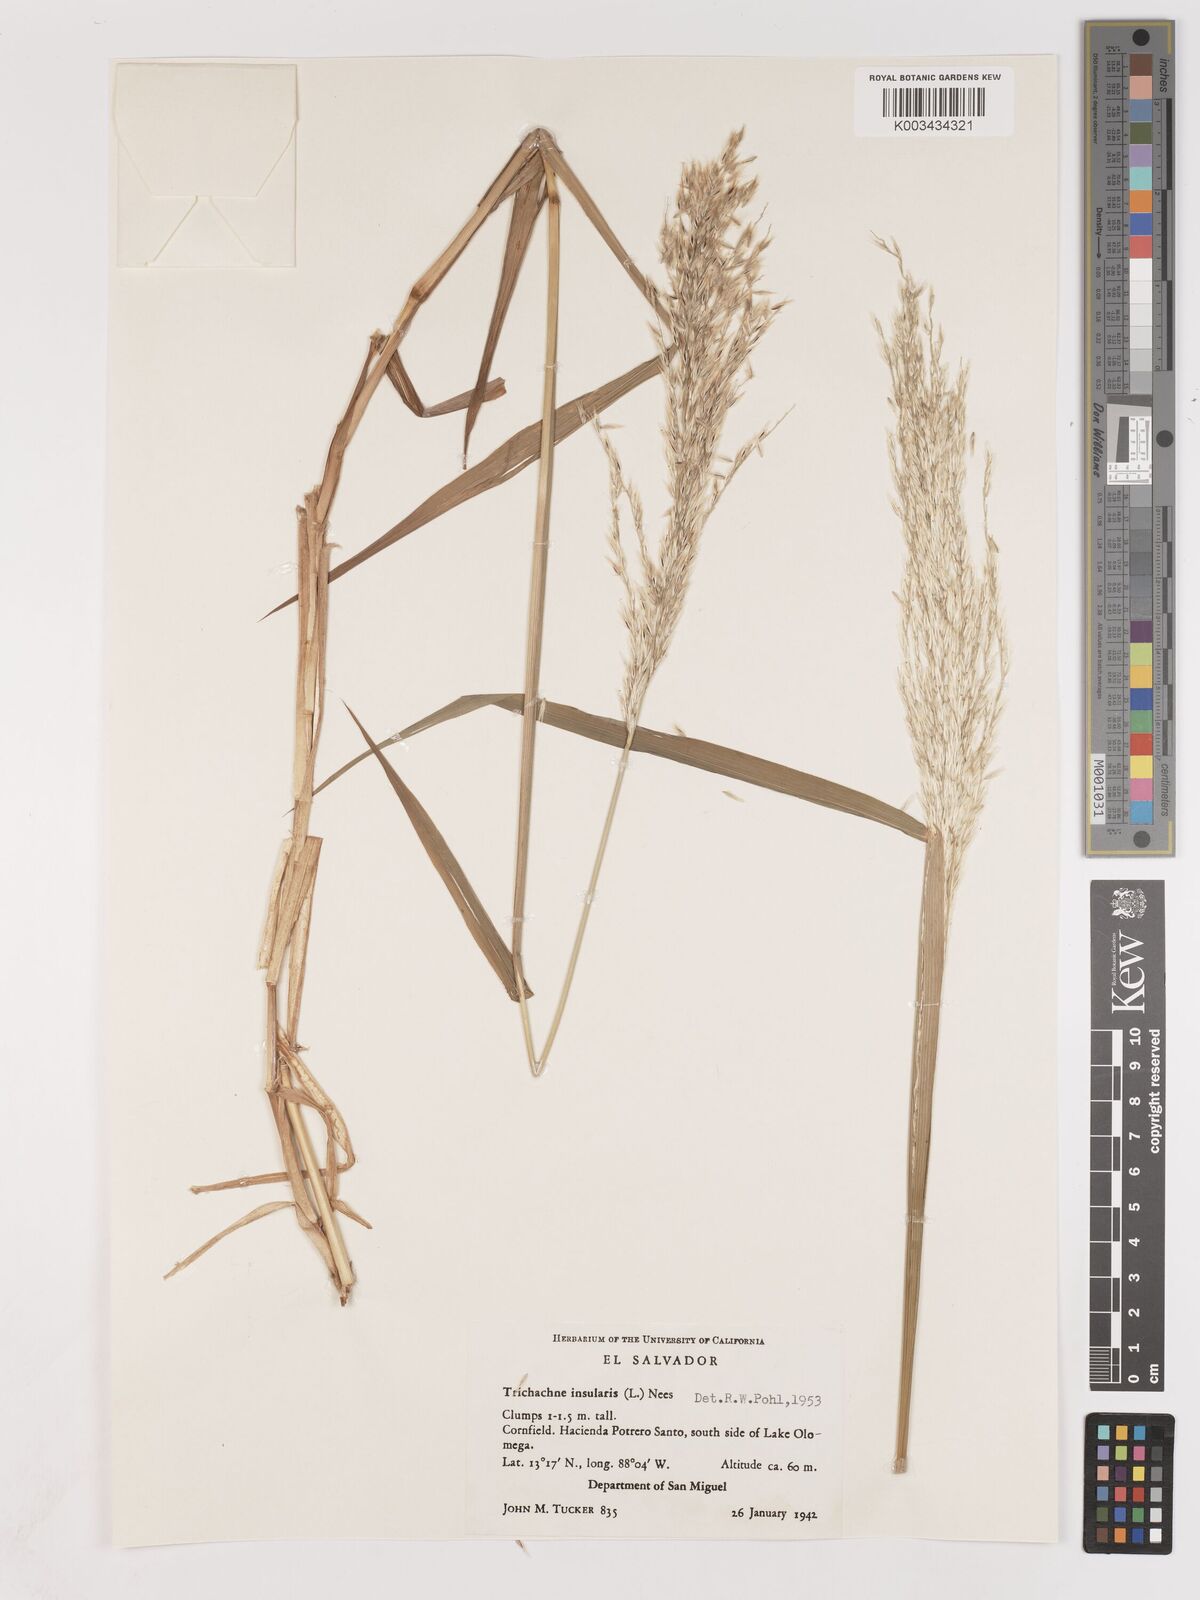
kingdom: Plantae
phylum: Tracheophyta
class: Liliopsida
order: Poales
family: Poaceae
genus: Digitaria
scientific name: Digitaria insularis
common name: Sourgrass
